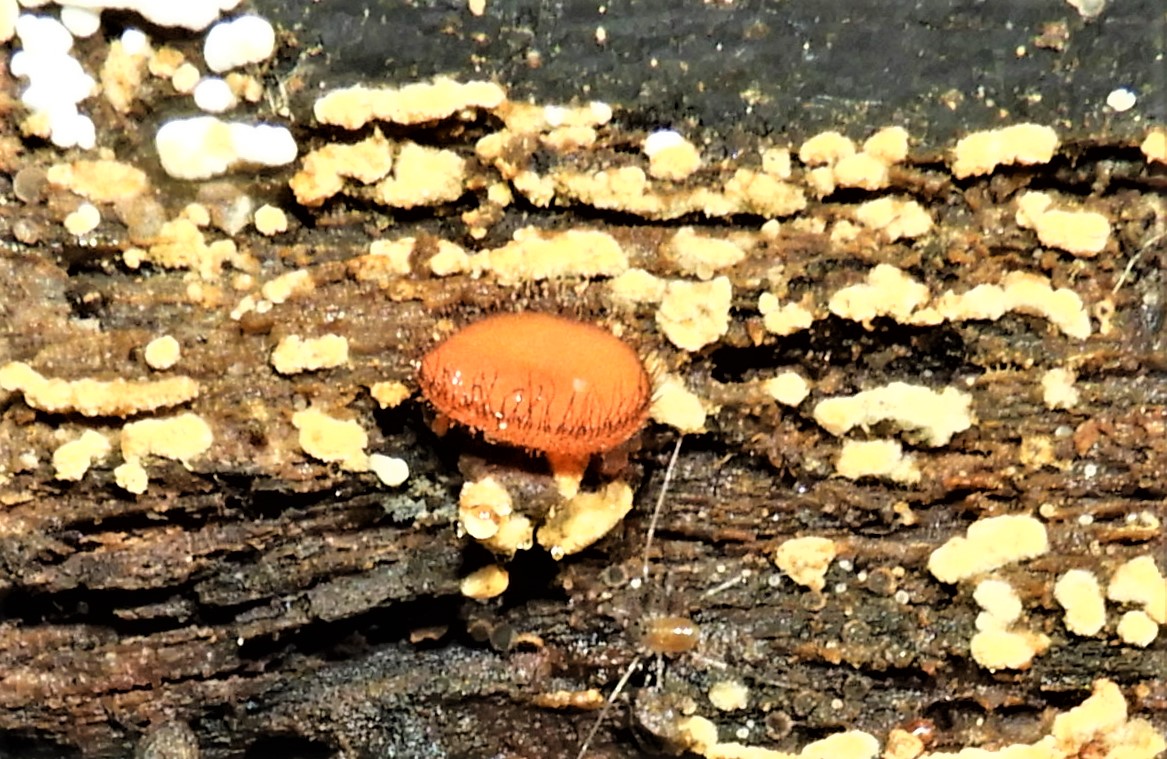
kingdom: Fungi
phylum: Ascomycota
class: Pezizomycetes
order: Pezizales
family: Pyronemataceae
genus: Scutellinia
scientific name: Scutellinia scutellata
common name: frynset skjoldbæger
